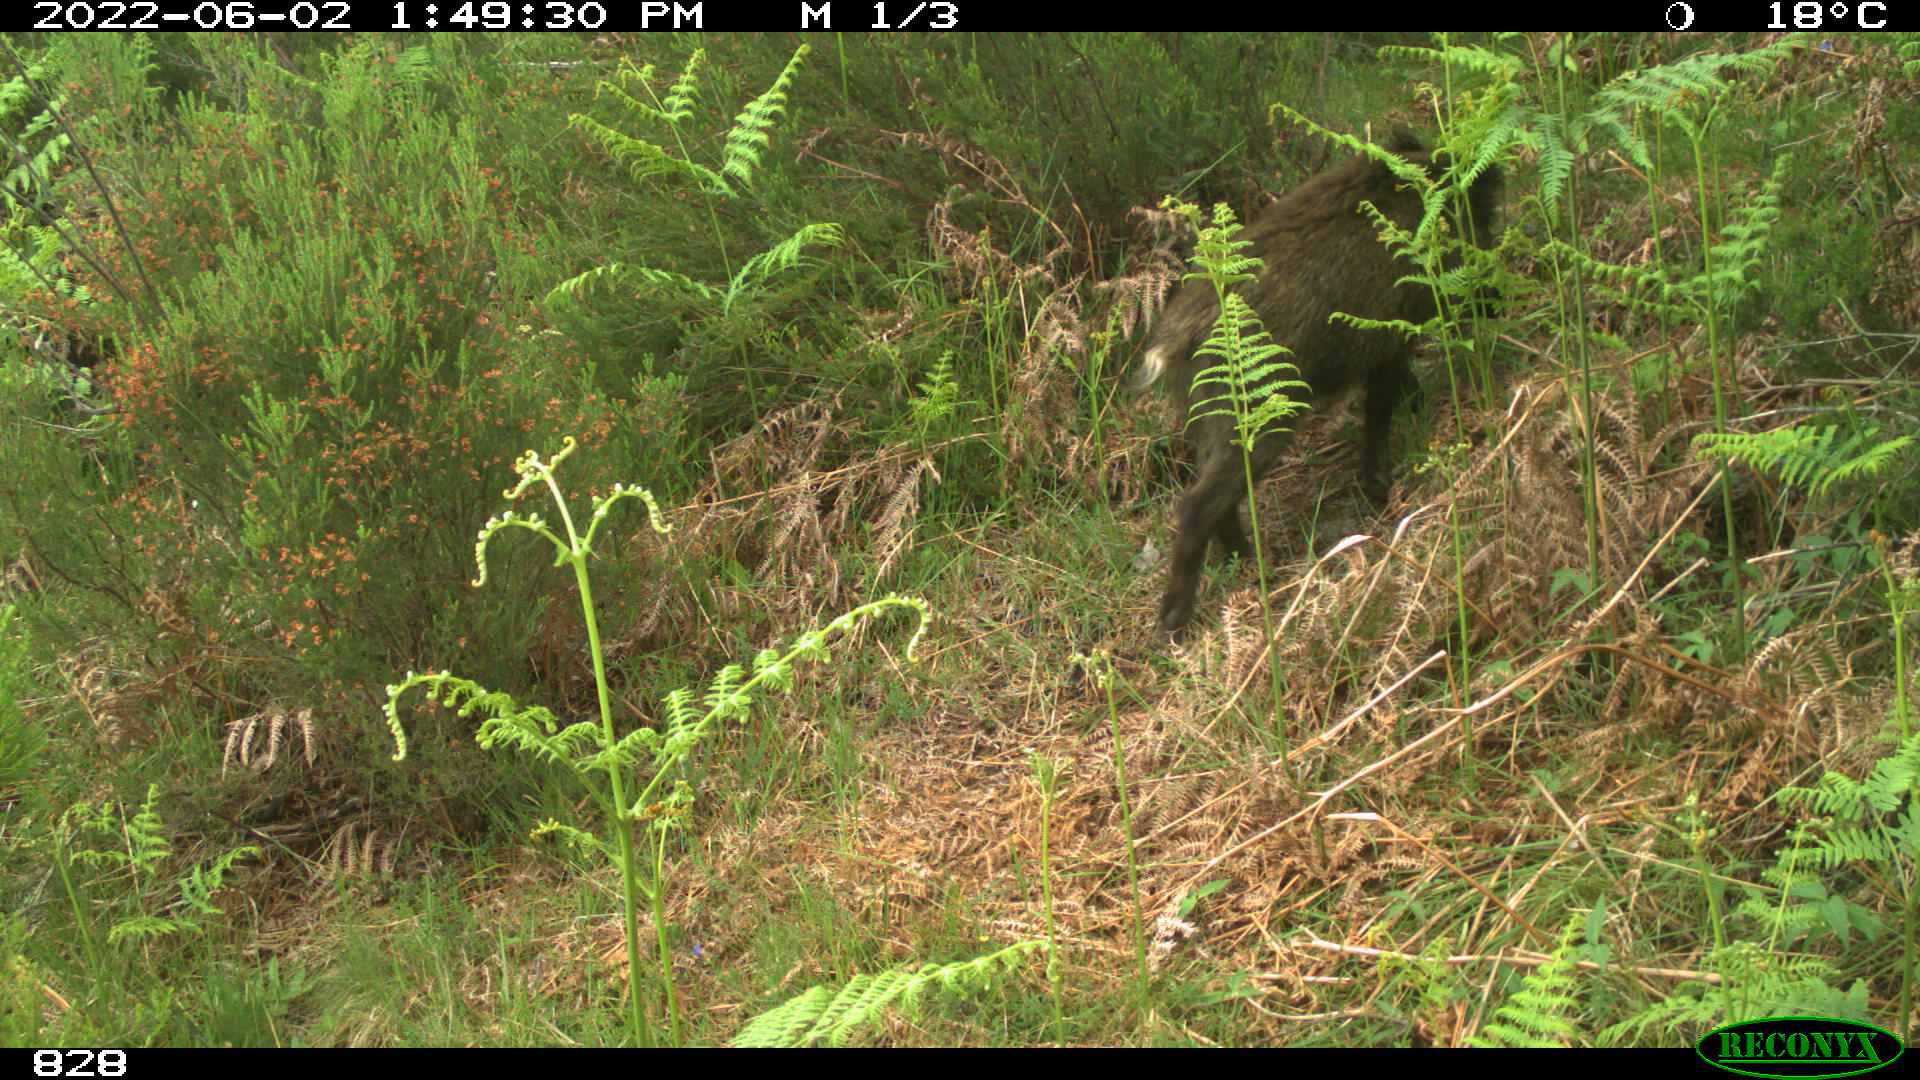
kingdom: Animalia
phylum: Chordata
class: Mammalia
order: Artiodactyla
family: Suidae
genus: Sus
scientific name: Sus scrofa
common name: Wild boar
